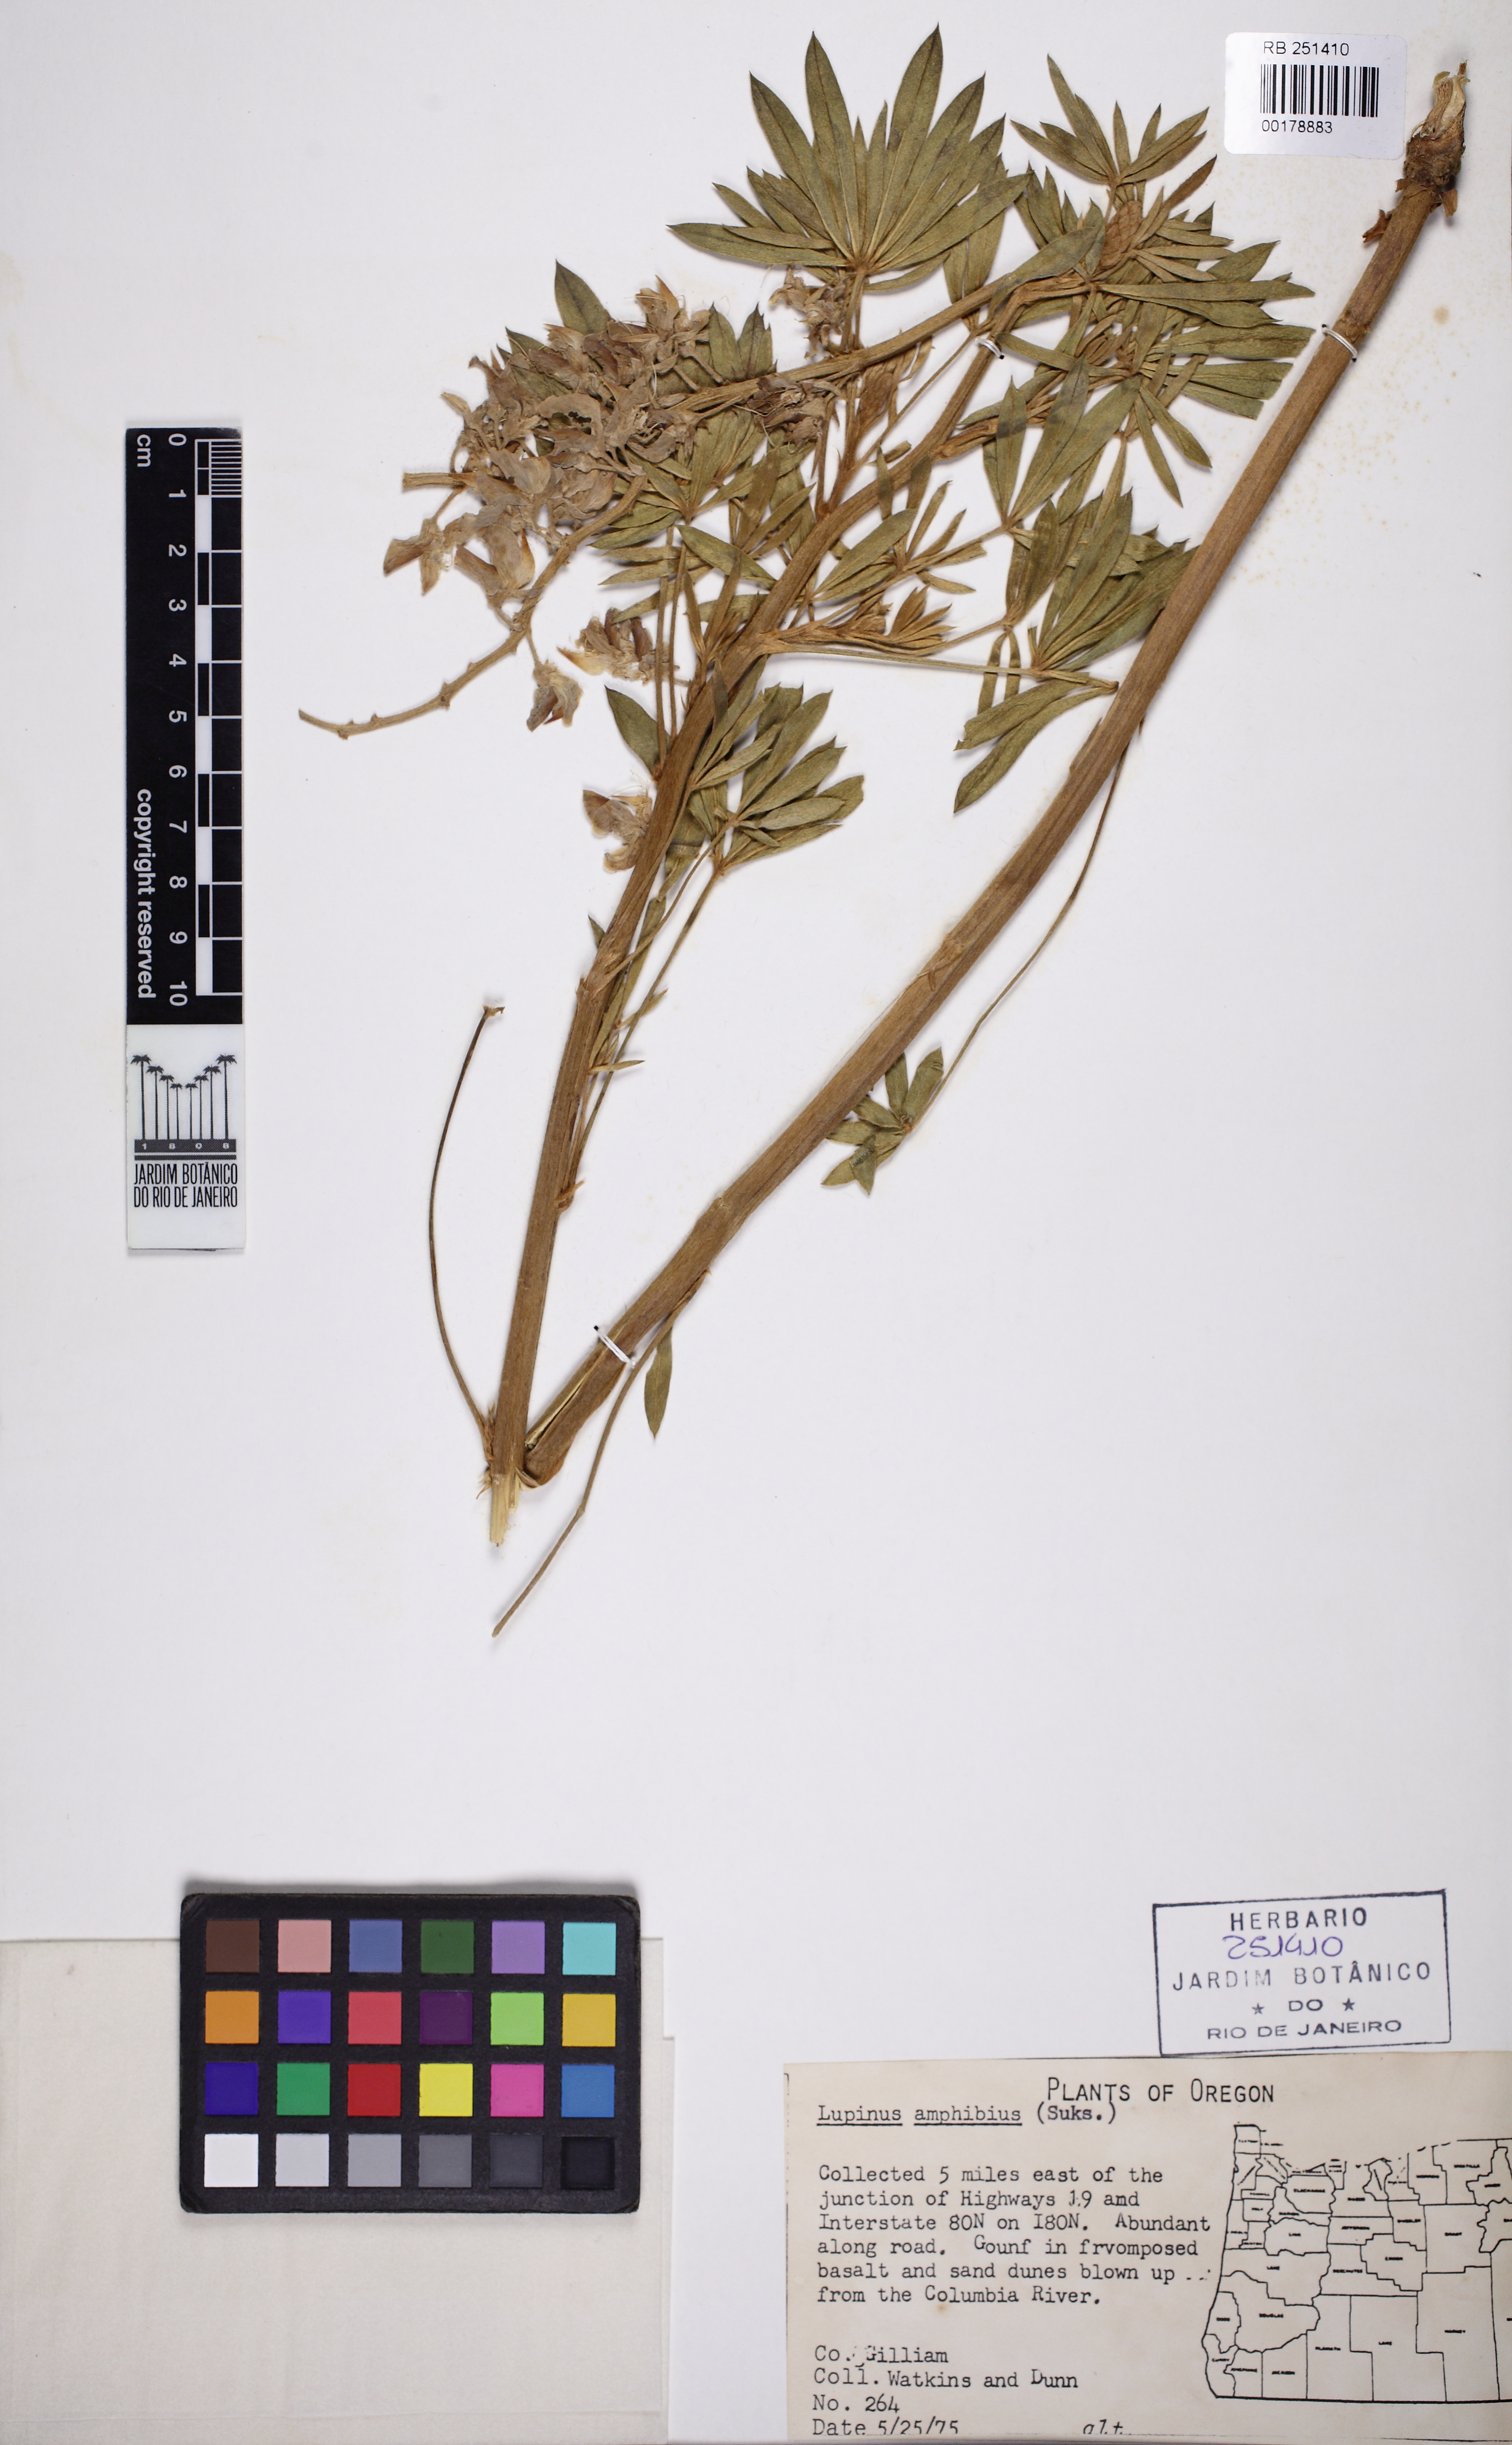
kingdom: Plantae
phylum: Tracheophyta
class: Magnoliopsida
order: Fabales
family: Fabaceae
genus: Lupinus
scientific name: Lupinus amphibius
